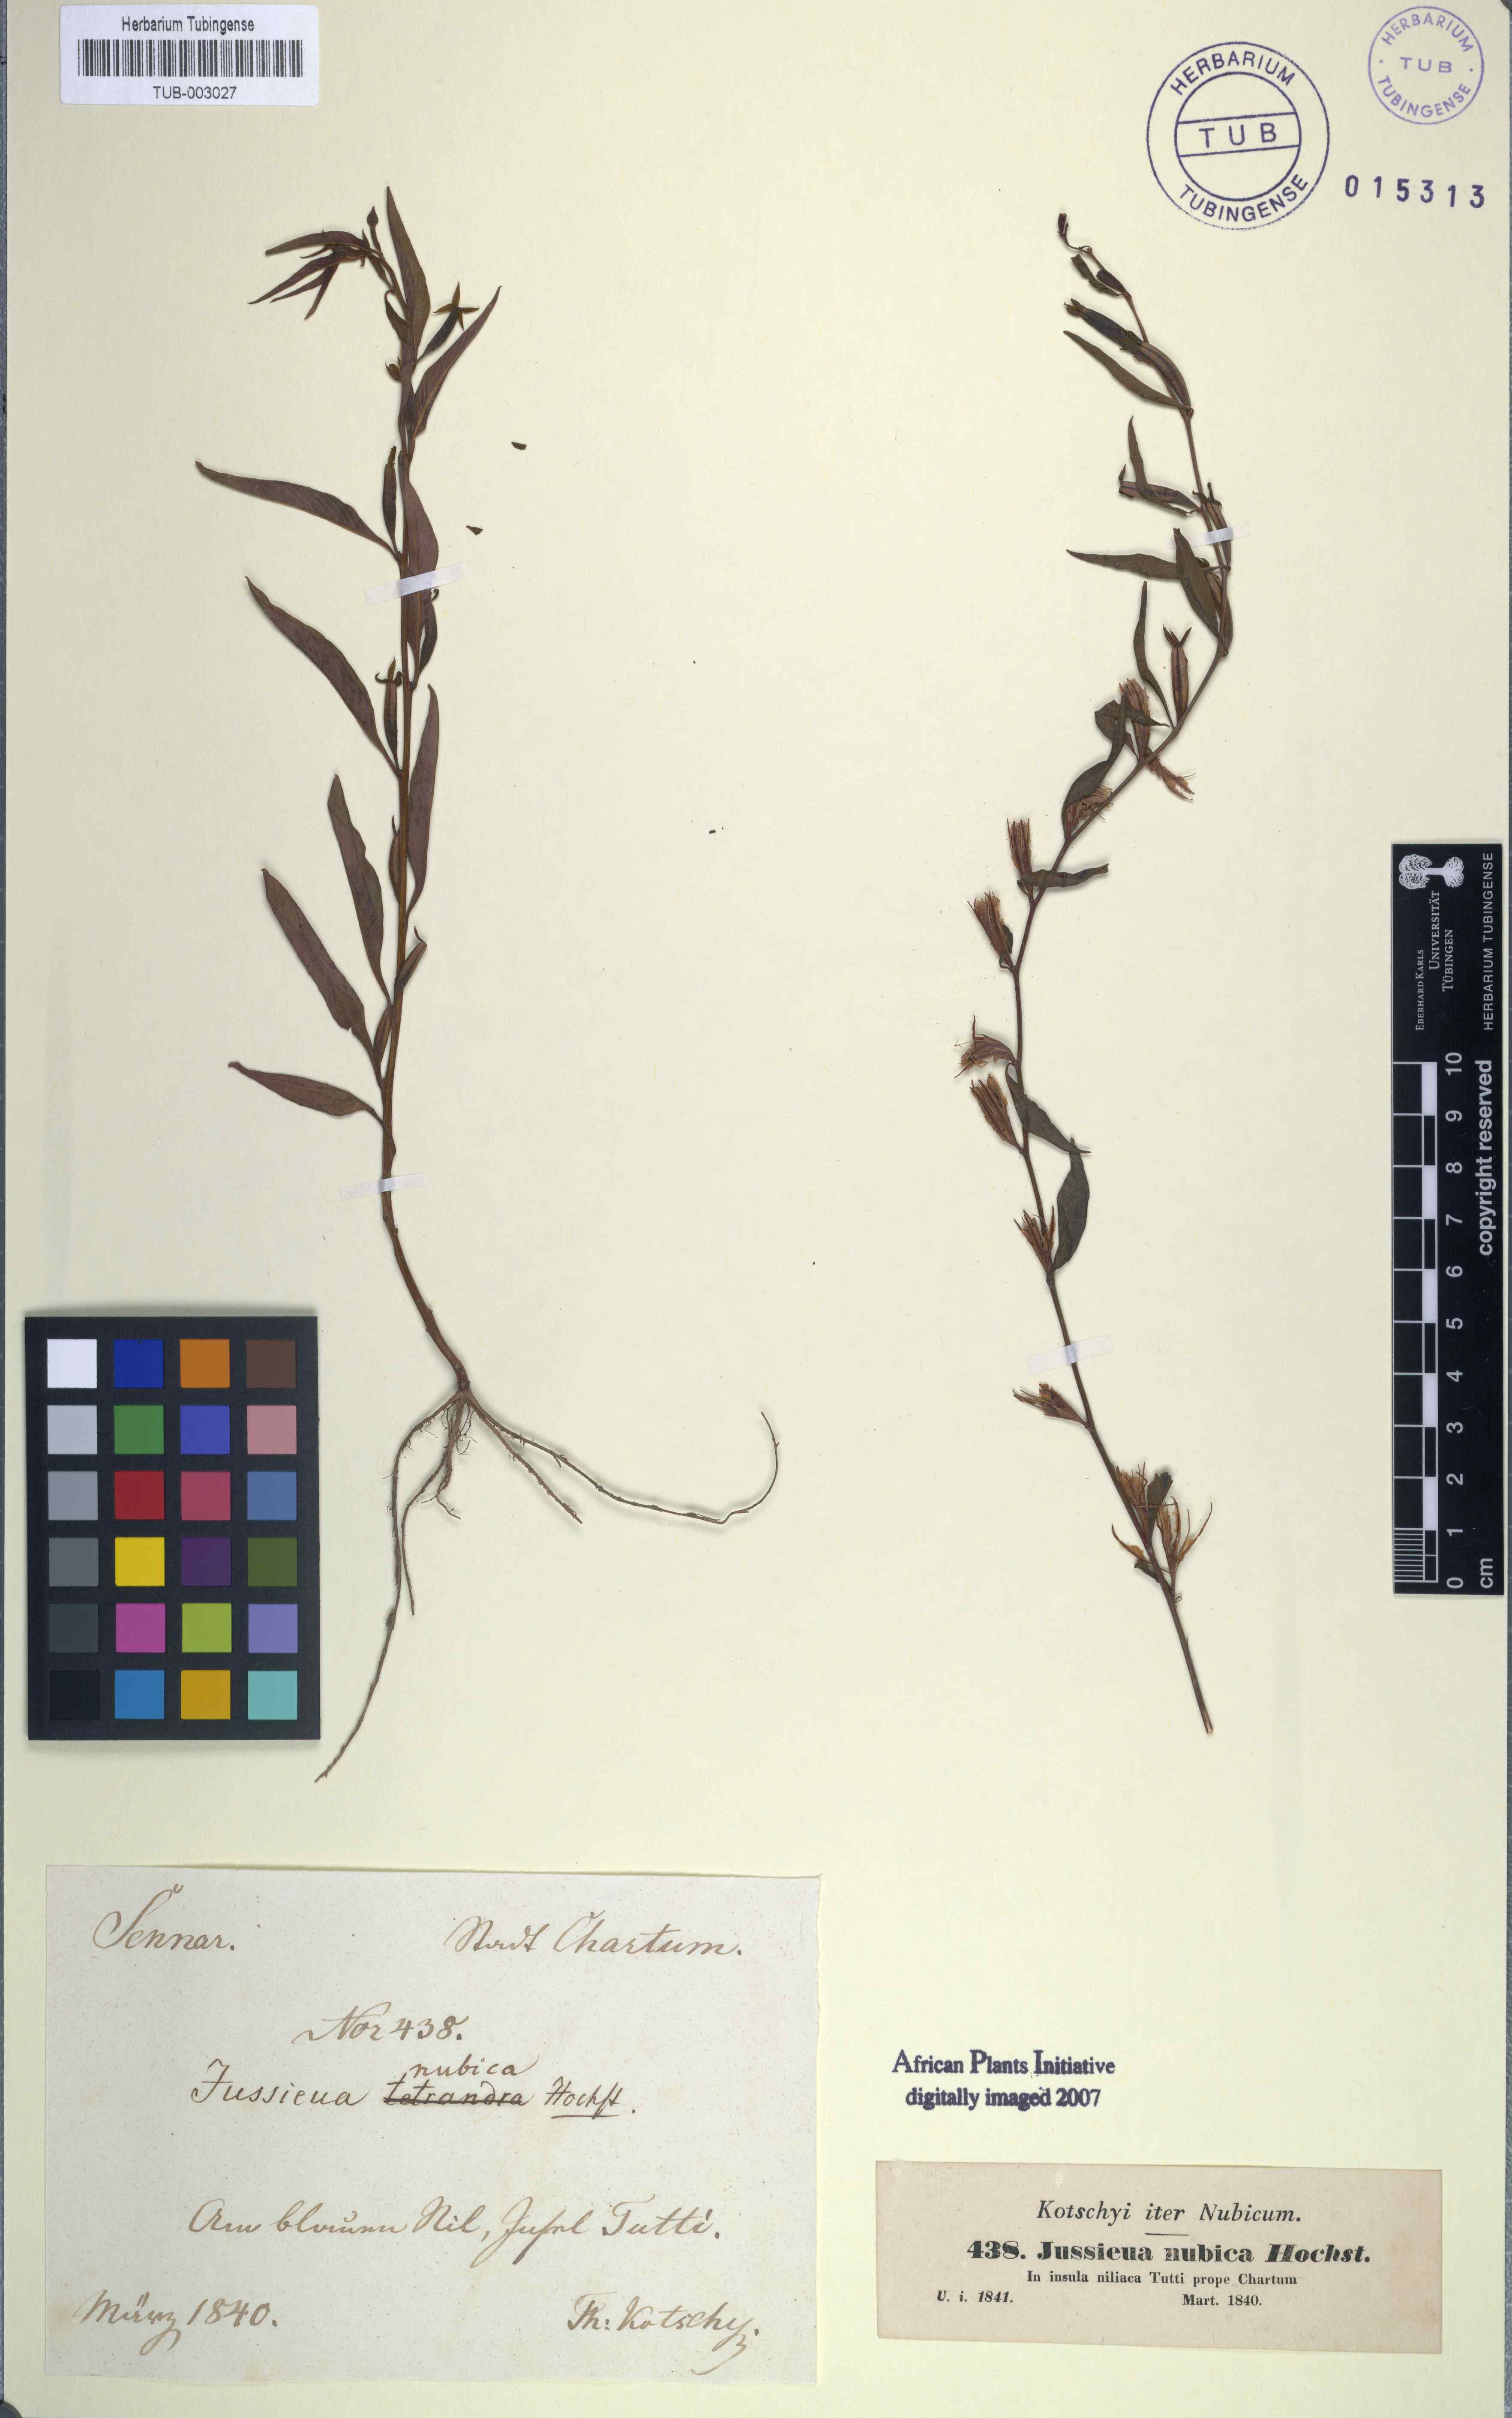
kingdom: Plantae
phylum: Tracheophyta
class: Magnoliopsida
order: Myrtales
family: Onagraceae
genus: Ludwigia
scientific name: Ludwigia hyssopifolia
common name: Linear leaf water primrose
